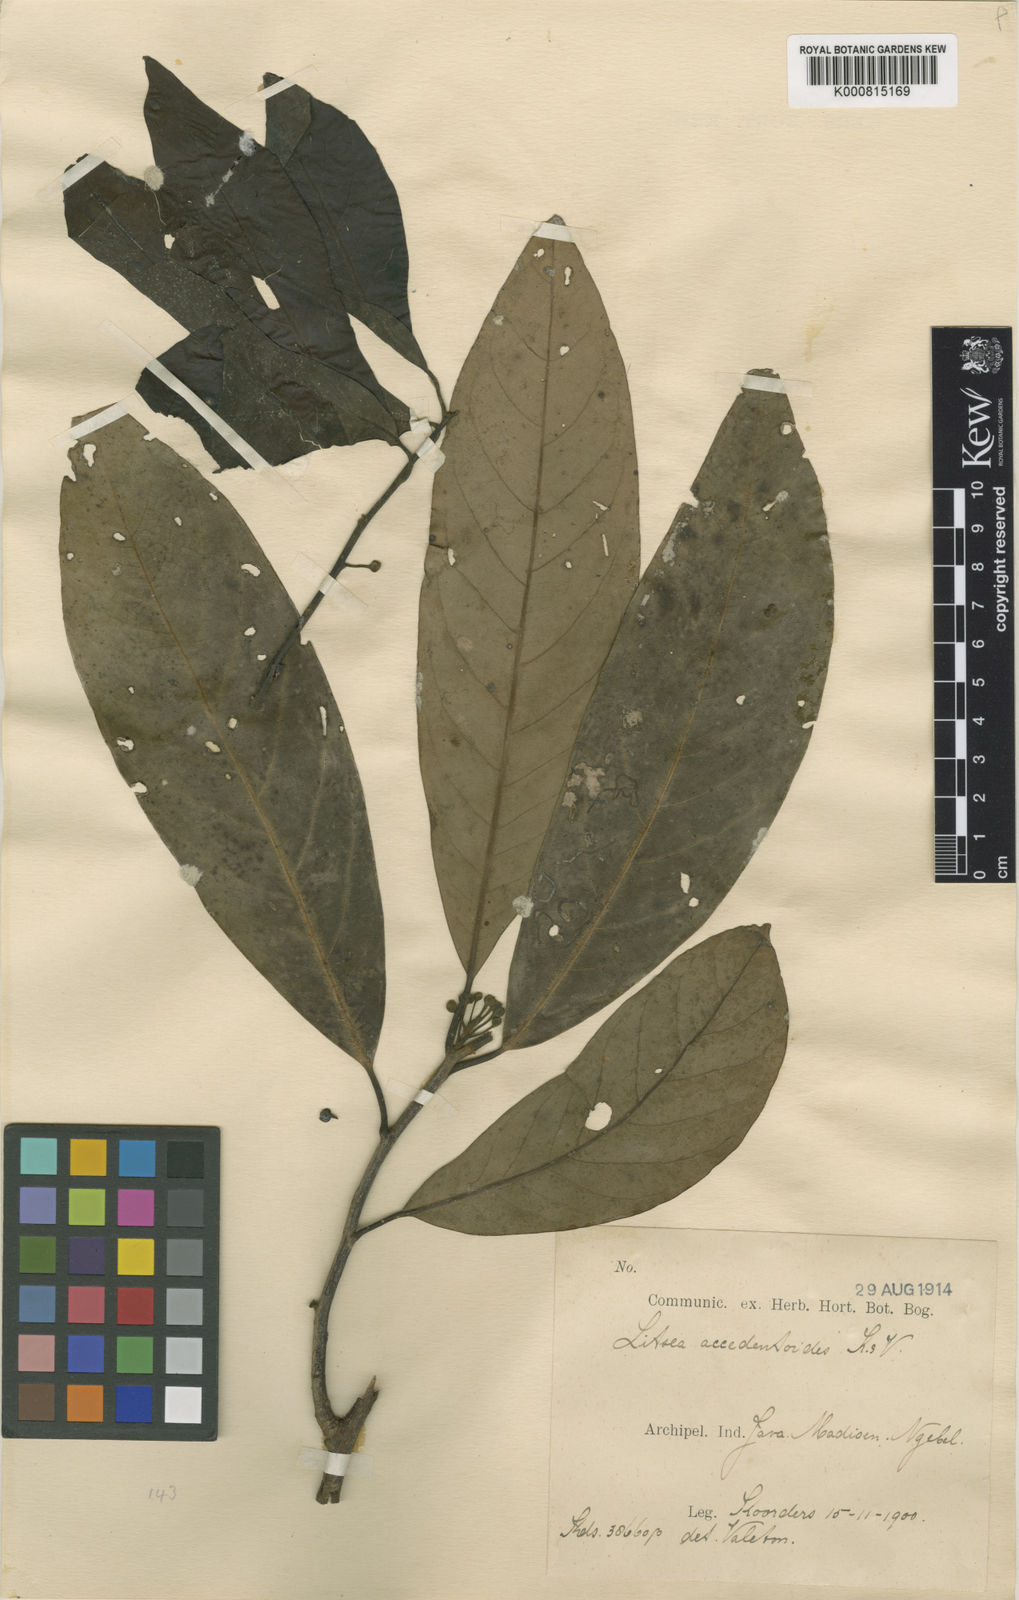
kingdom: Plantae
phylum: Tracheophyta
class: Magnoliopsida
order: Laurales
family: Lauraceae
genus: Litsea
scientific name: Litsea accedentoides
